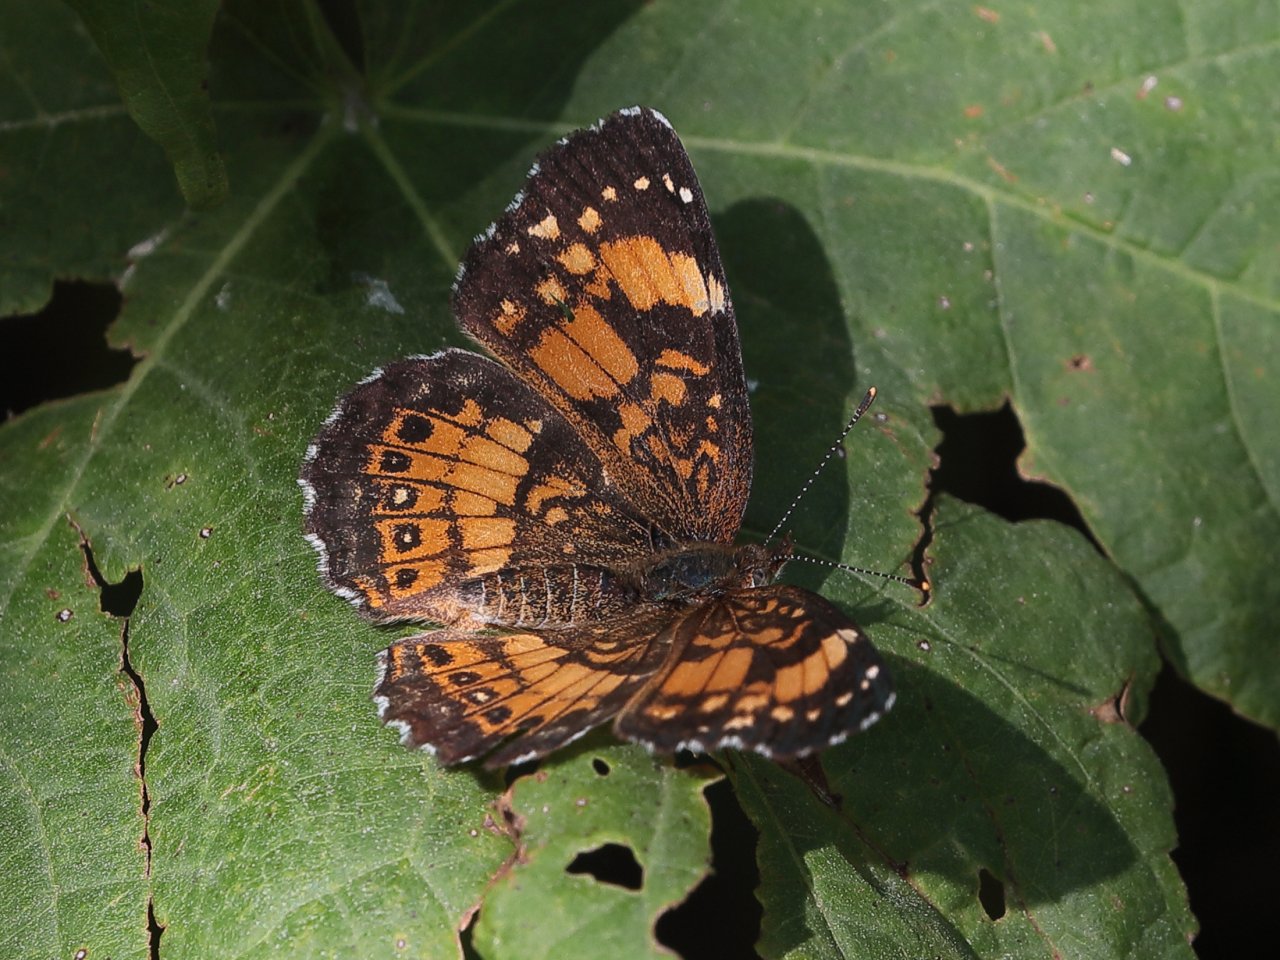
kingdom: Animalia
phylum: Arthropoda
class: Insecta
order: Lepidoptera
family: Nymphalidae
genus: Chlosyne
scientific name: Chlosyne nycteis
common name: Silvery Checkerspot
